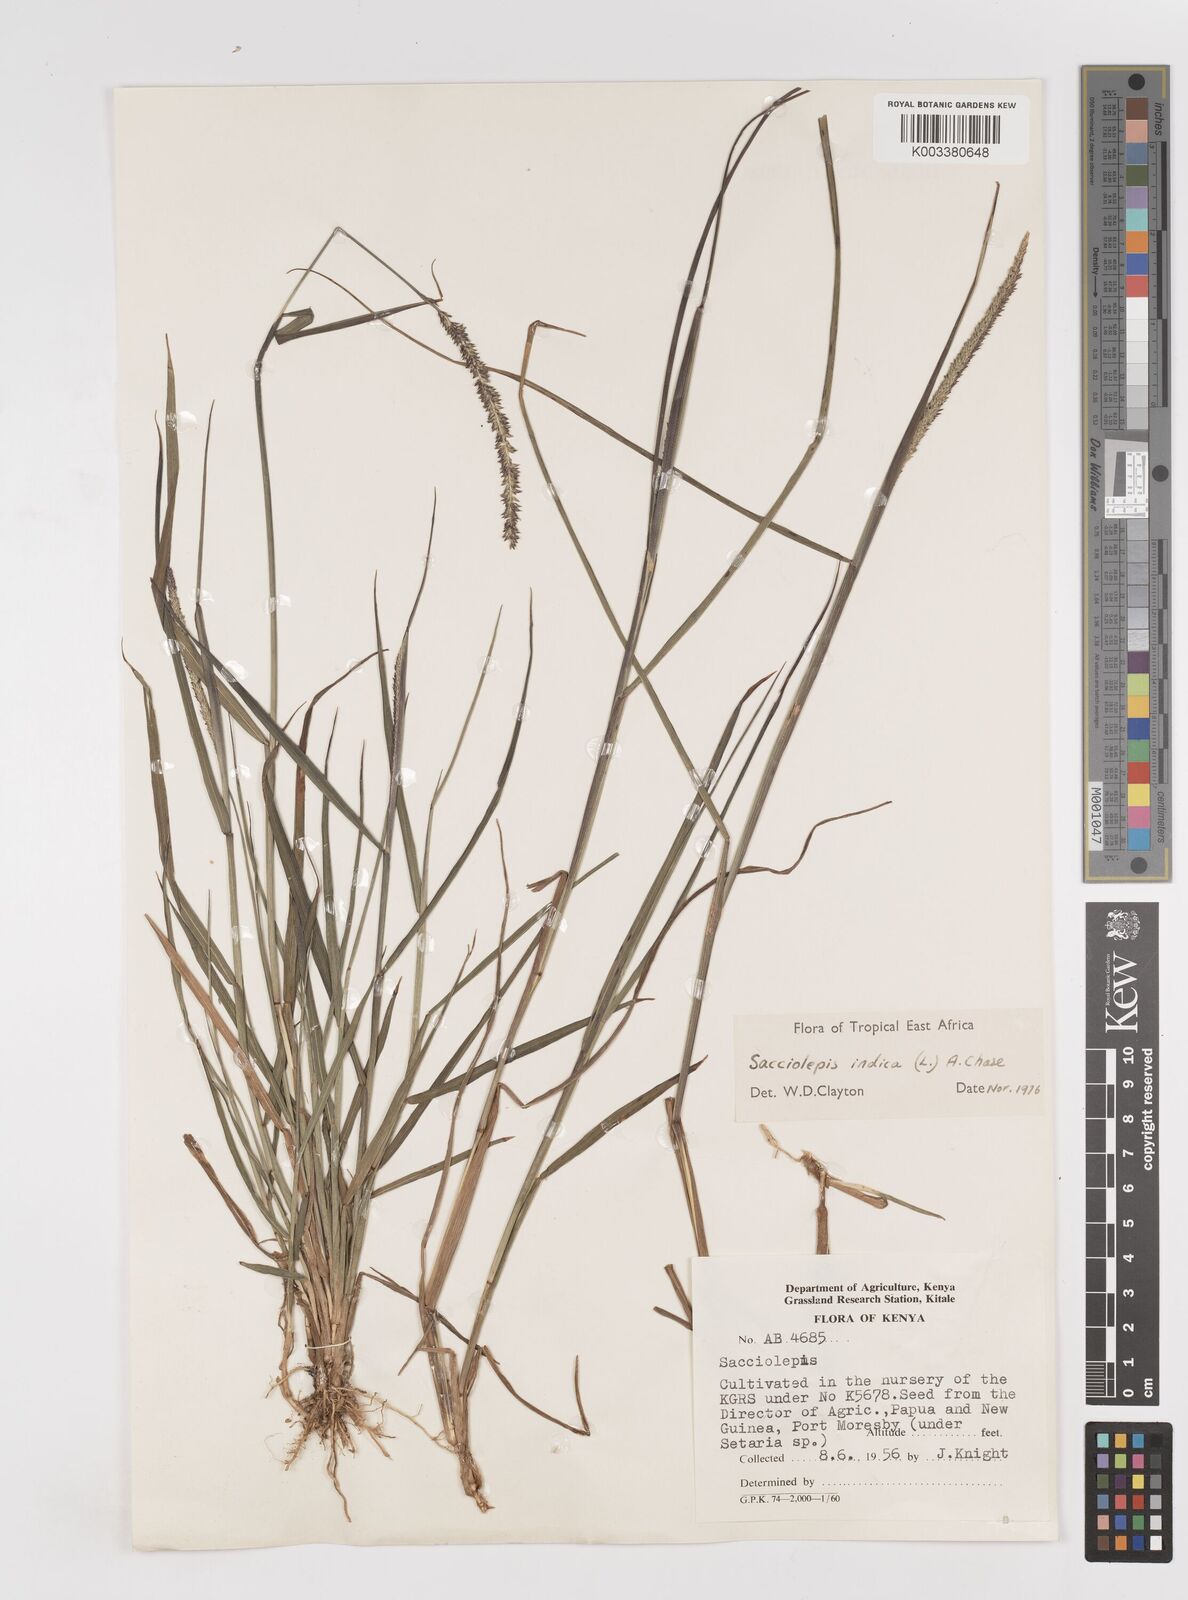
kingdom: Plantae
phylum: Tracheophyta
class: Liliopsida
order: Poales
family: Poaceae
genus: Sacciolepis
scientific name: Sacciolepis indica
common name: Glenwoodgrass
